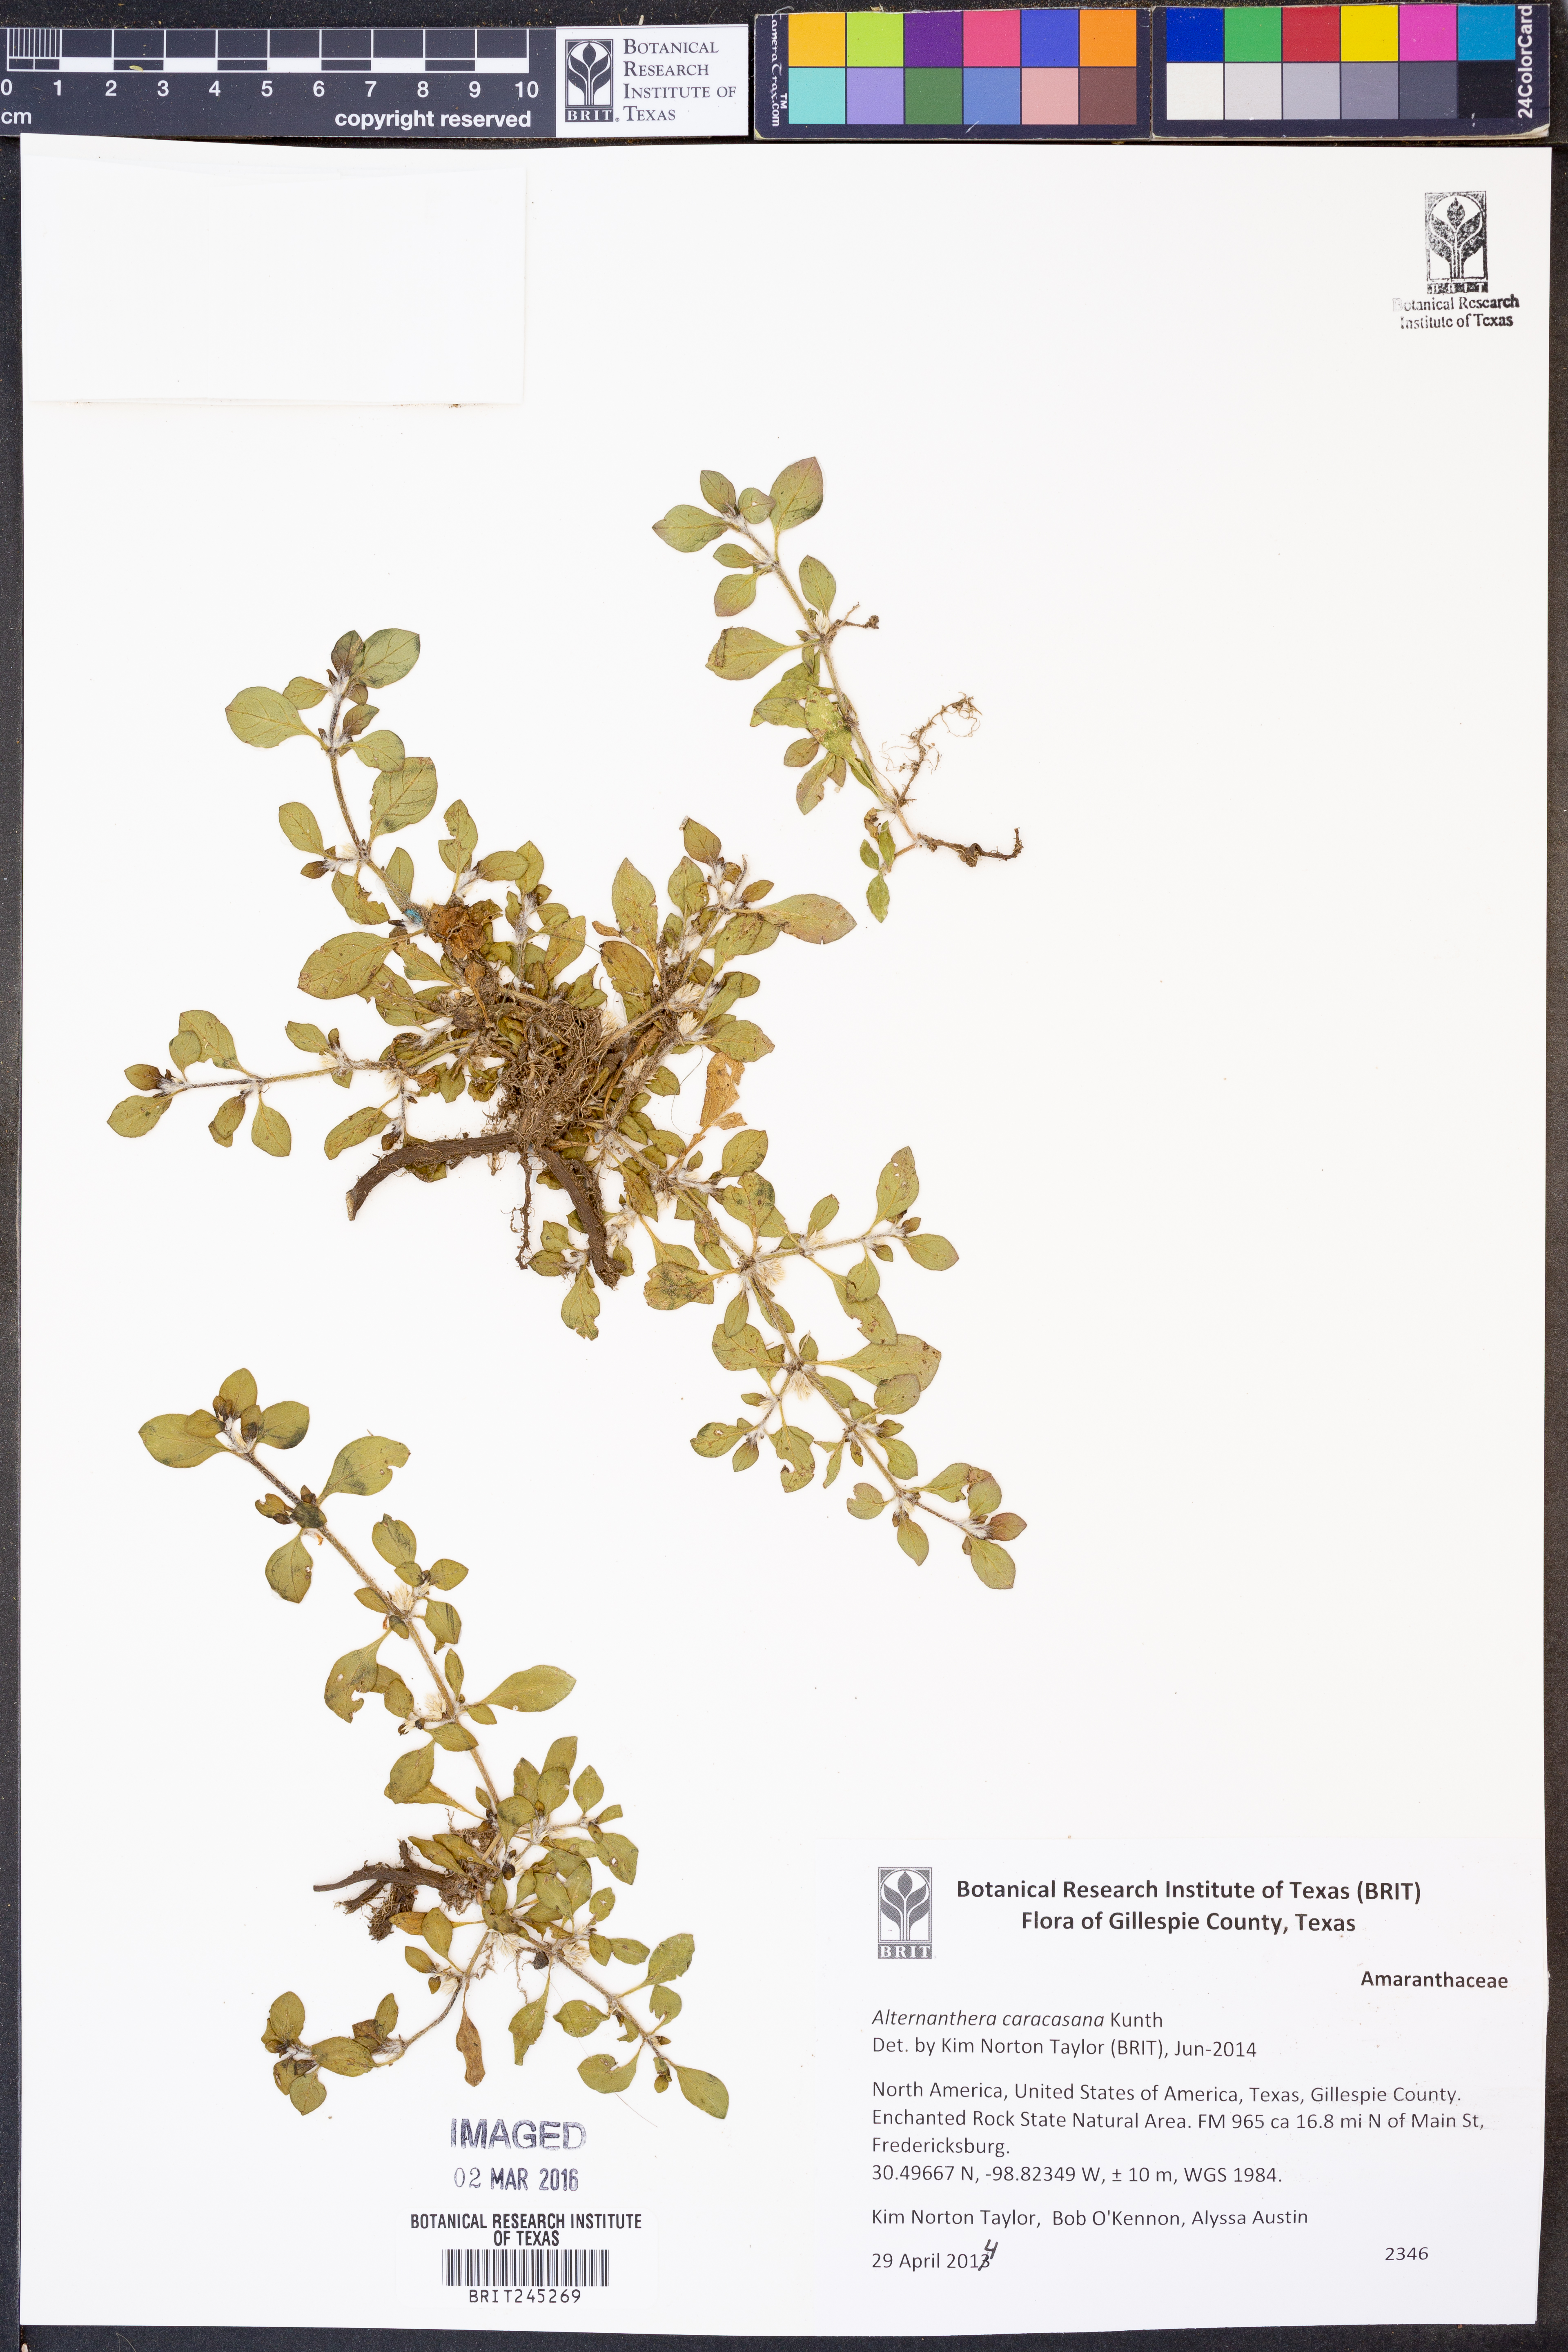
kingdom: Plantae
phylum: Tracheophyta
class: Magnoliopsida
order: Caryophyllales
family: Amaranthaceae
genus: Alternanthera
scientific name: Alternanthera caracasana
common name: Washerwoman
